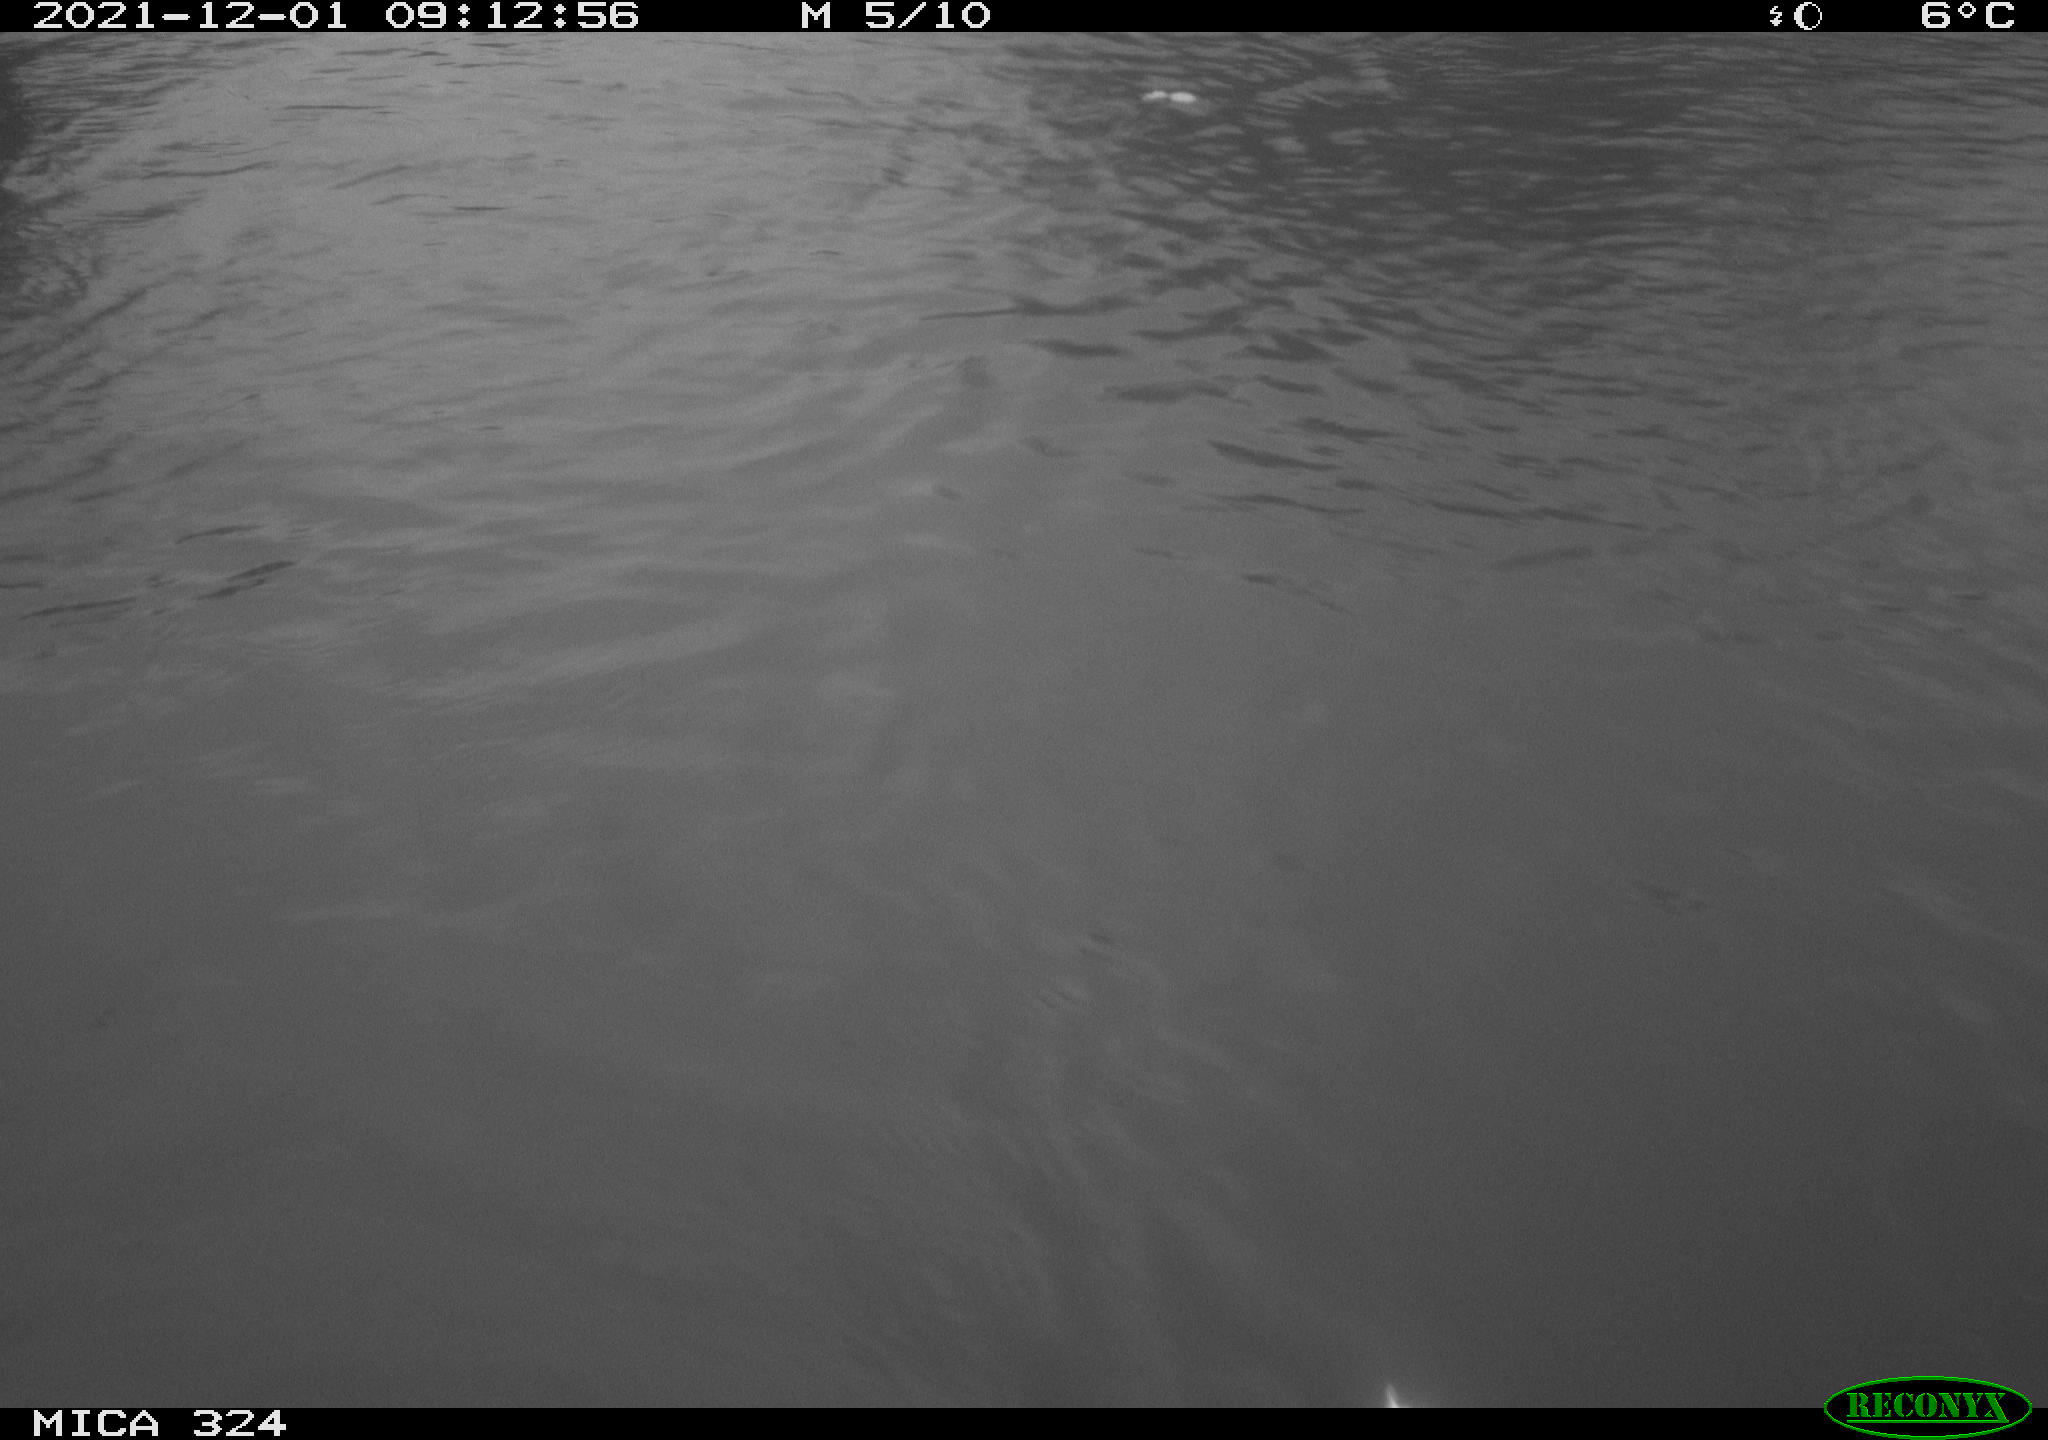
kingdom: Animalia
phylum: Chordata
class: Mammalia
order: Rodentia
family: Cricetidae
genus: Ondatra
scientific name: Ondatra zibethicus
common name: Muskrat
